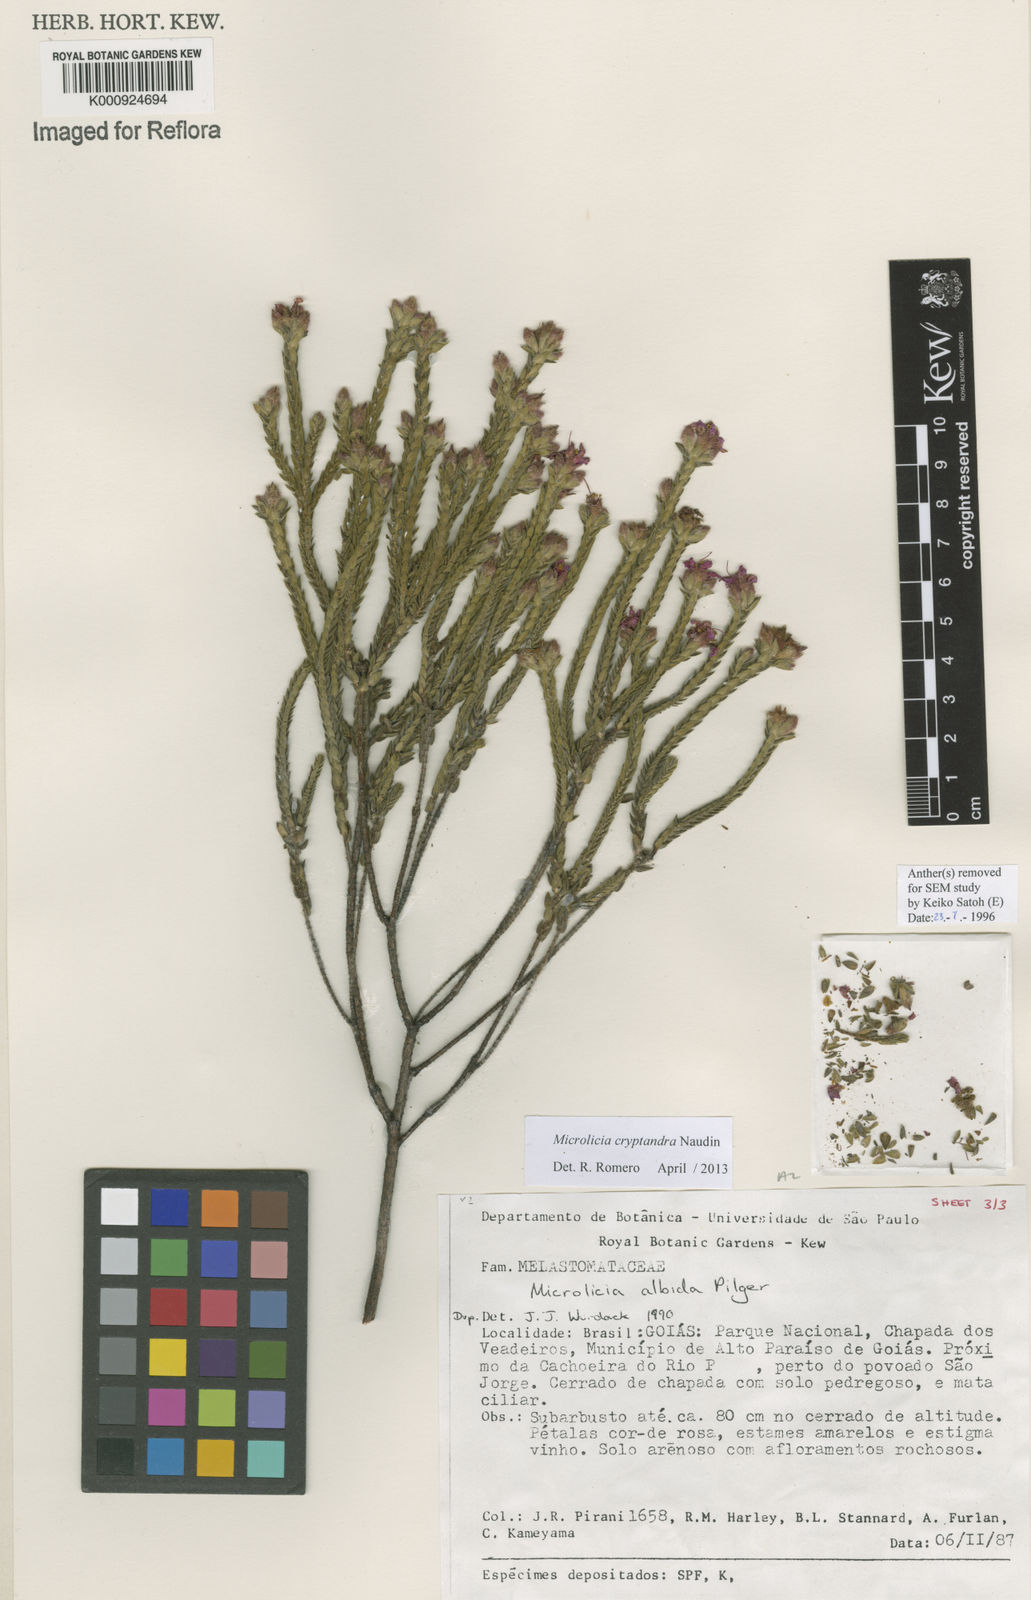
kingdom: Plantae
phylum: Tracheophyta
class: Magnoliopsida
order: Myrtales
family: Melastomataceae
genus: Microlicia
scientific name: Microlicia cryptandra
